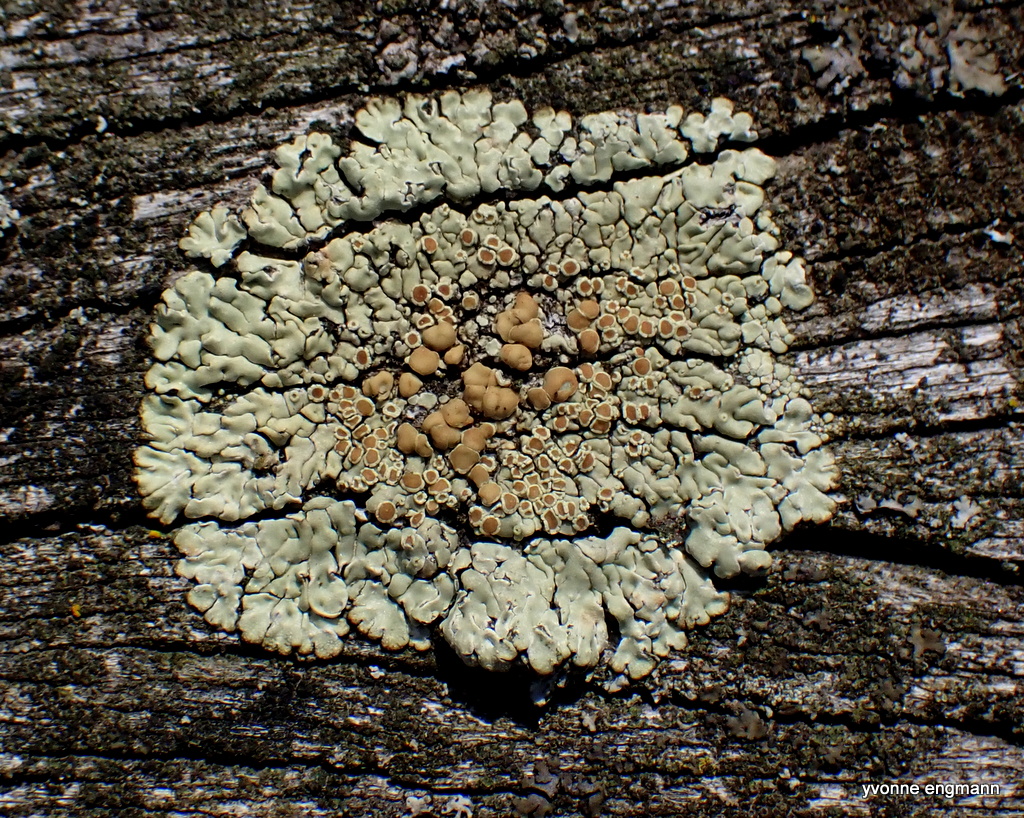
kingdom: Fungi
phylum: Ascomycota
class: Lecanoromycetes
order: Lecanorales
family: Lecanoraceae
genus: Protoparmeliopsis
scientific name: Protoparmeliopsis muralis
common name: randfliget kantskivelav
